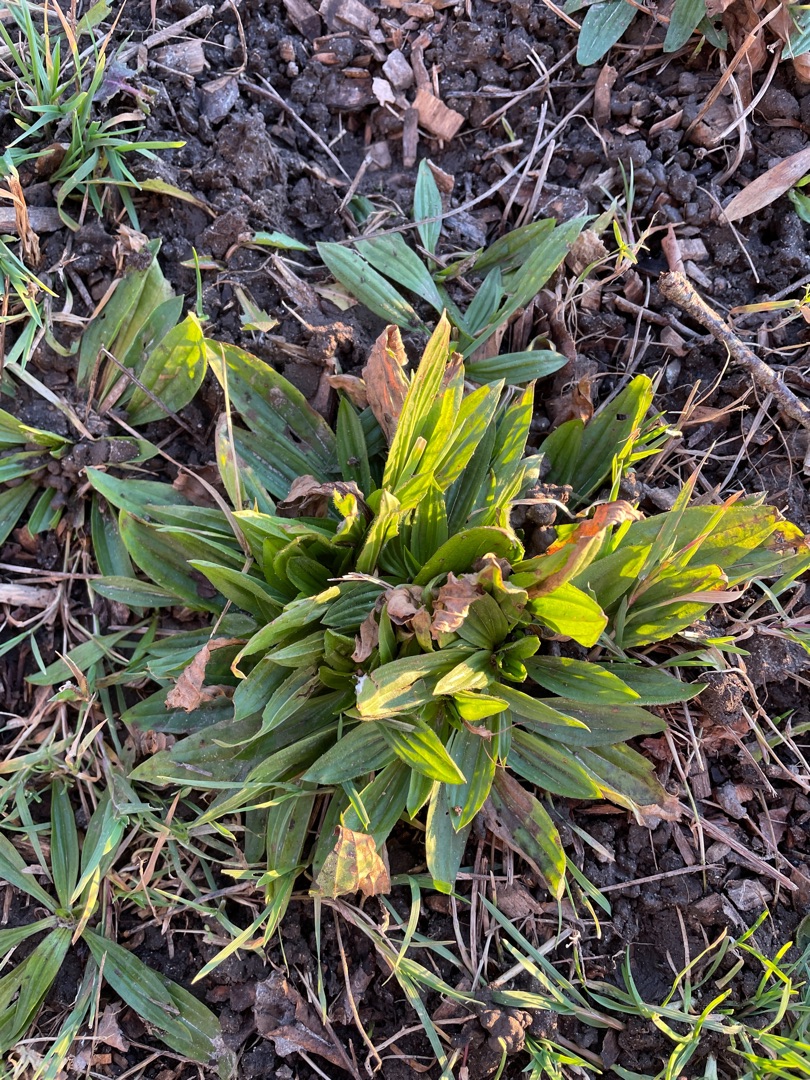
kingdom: Plantae
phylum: Tracheophyta
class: Magnoliopsida
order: Lamiales
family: Plantaginaceae
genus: Plantago
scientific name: Plantago lanceolata
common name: Lancet-vejbred
